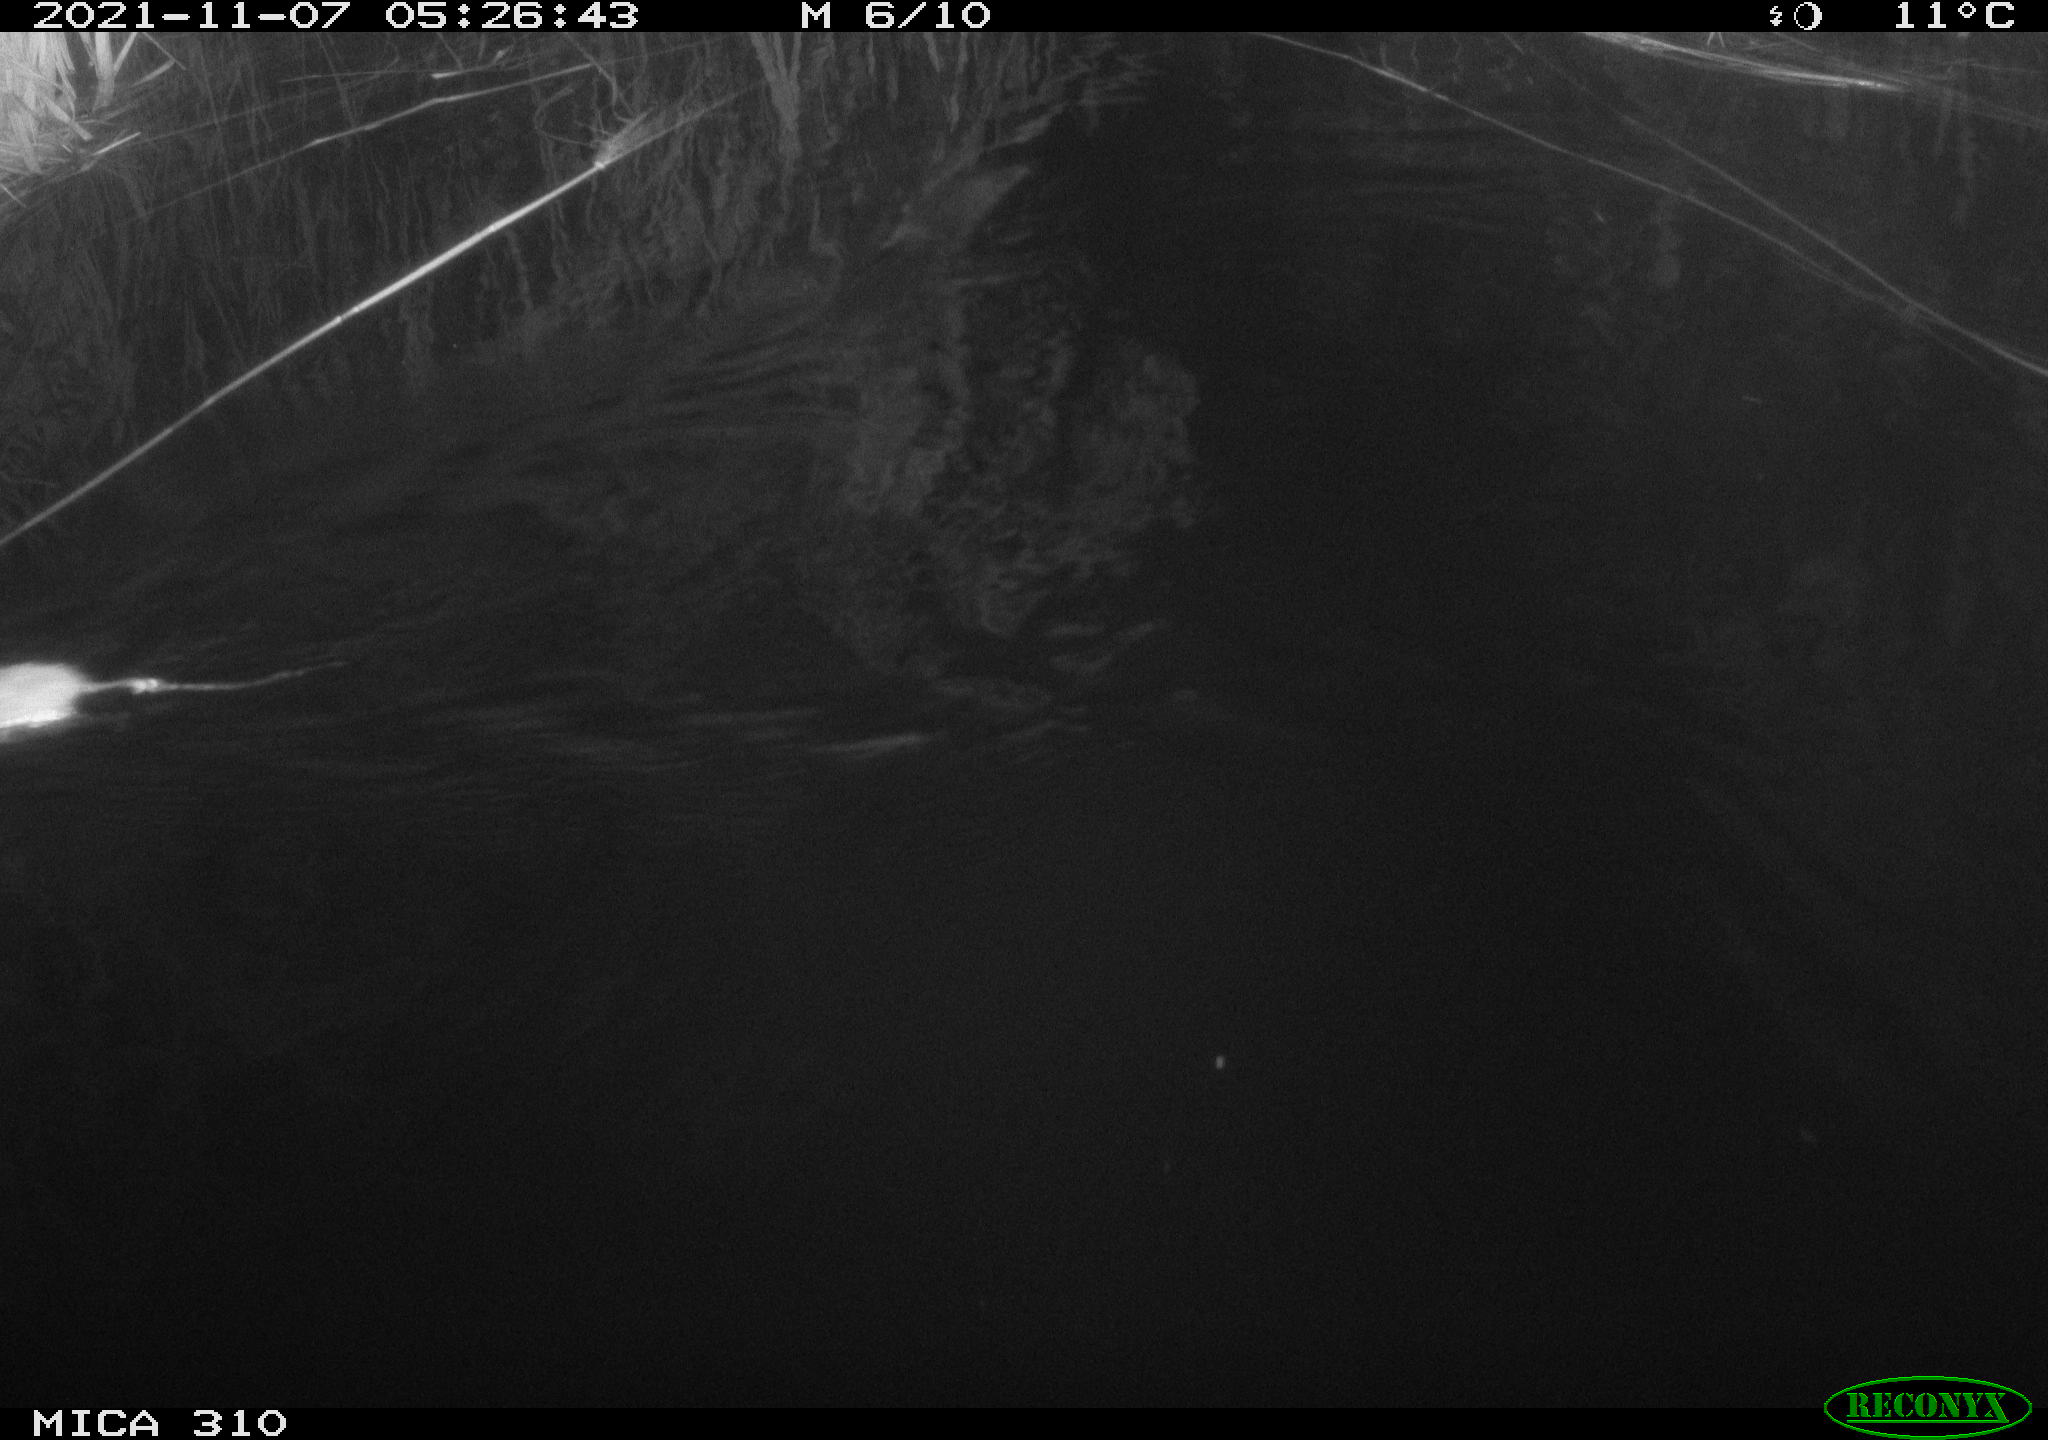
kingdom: Animalia
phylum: Chordata
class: Mammalia
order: Rodentia
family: Muridae
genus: Rattus
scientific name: Rattus norvegicus
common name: Brown rat
